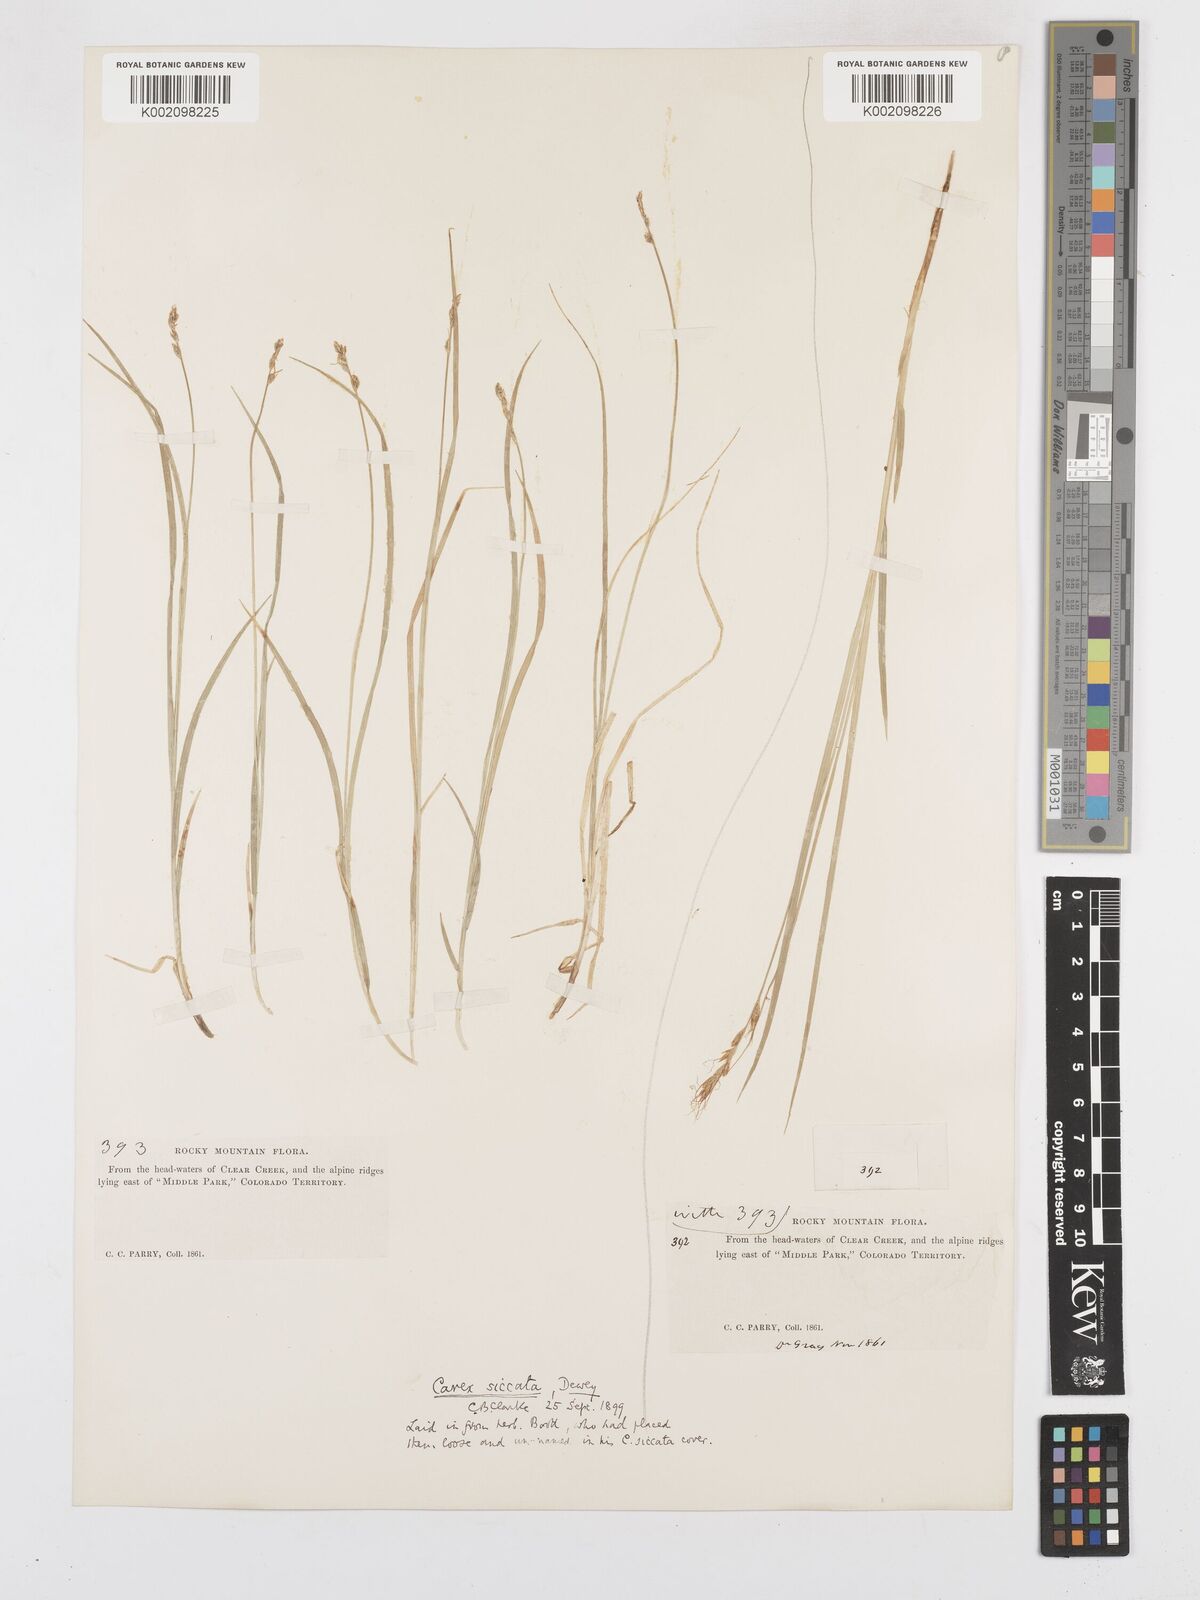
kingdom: Plantae
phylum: Tracheophyta
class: Liliopsida
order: Poales
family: Cyperaceae
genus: Carex
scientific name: Carex foenea
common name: Bronze sedge
